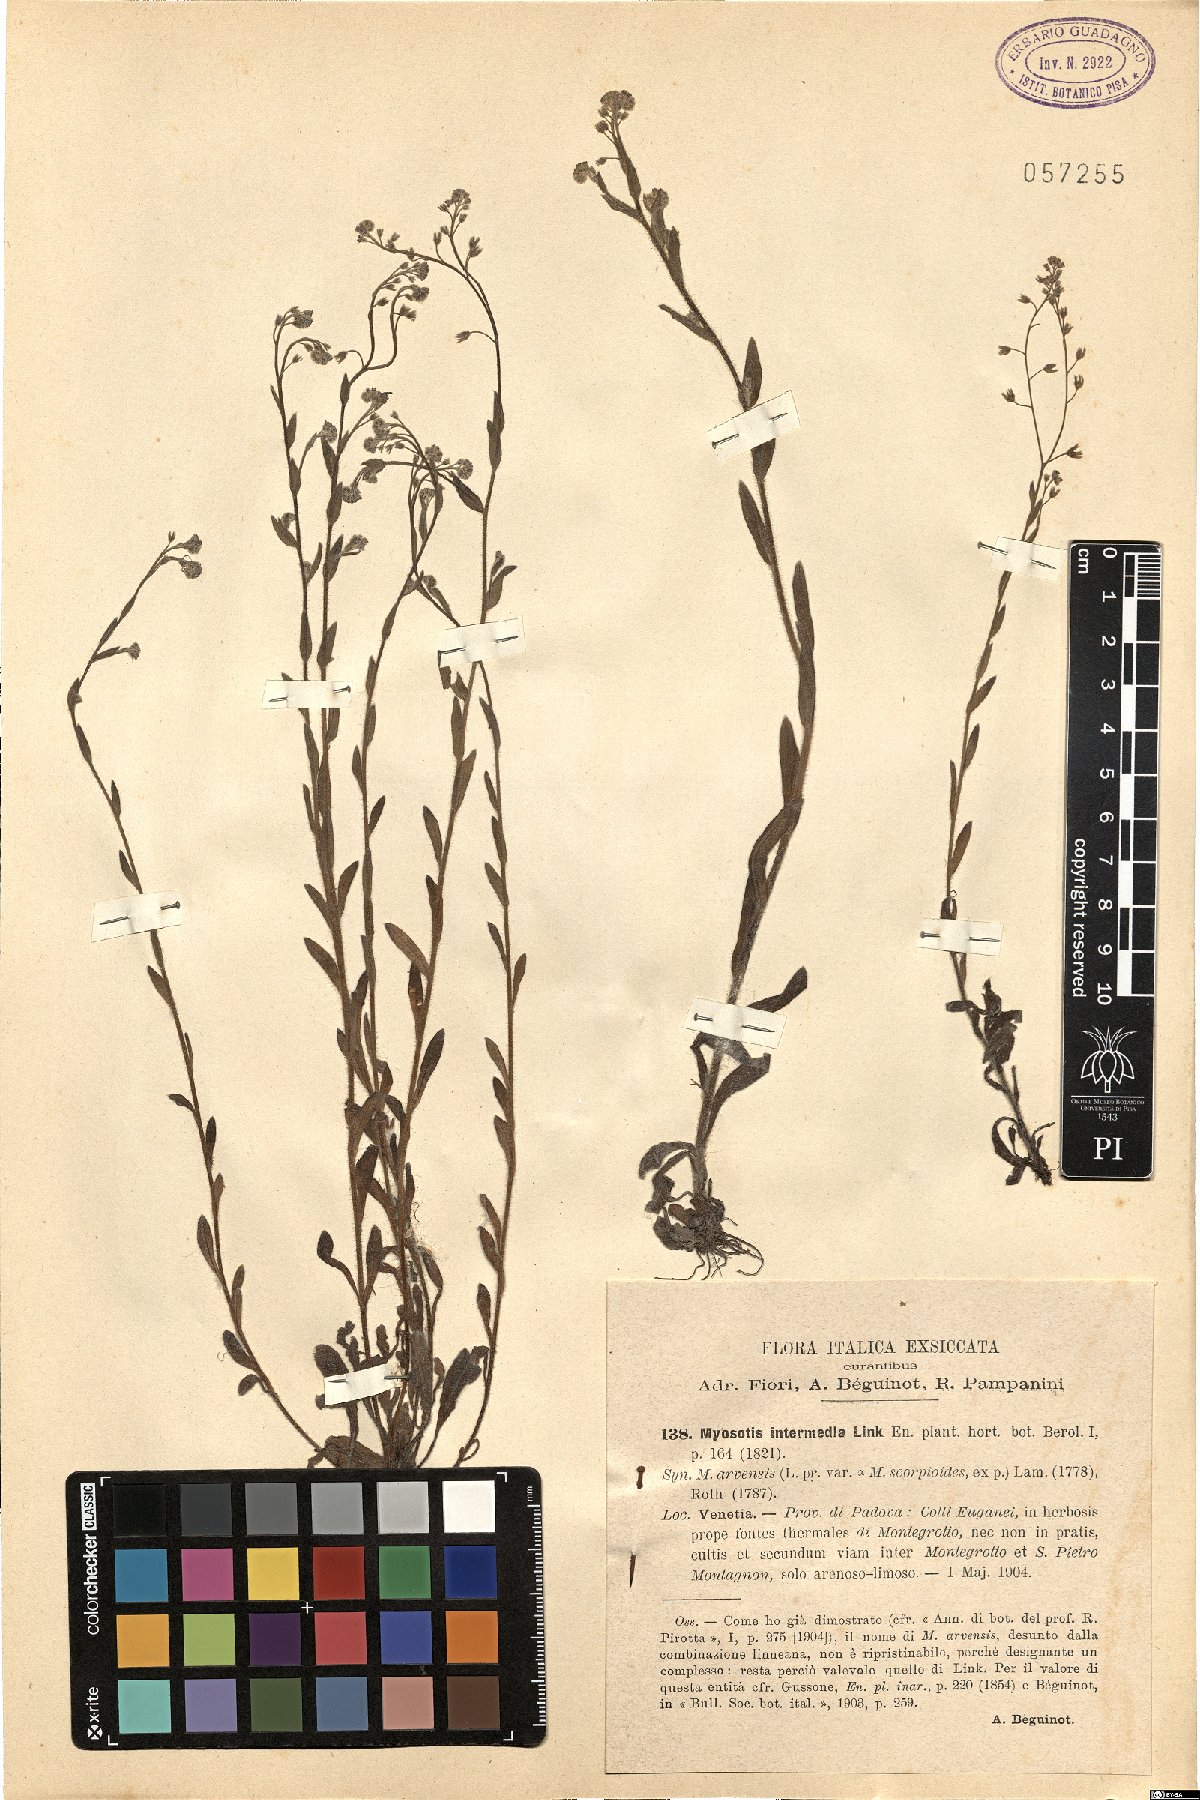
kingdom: Plantae
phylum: Tracheophyta
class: Magnoliopsida
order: Boraginales
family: Boraginaceae
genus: Myosotis
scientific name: Myosotis arvensis
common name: Field forget-me-not
